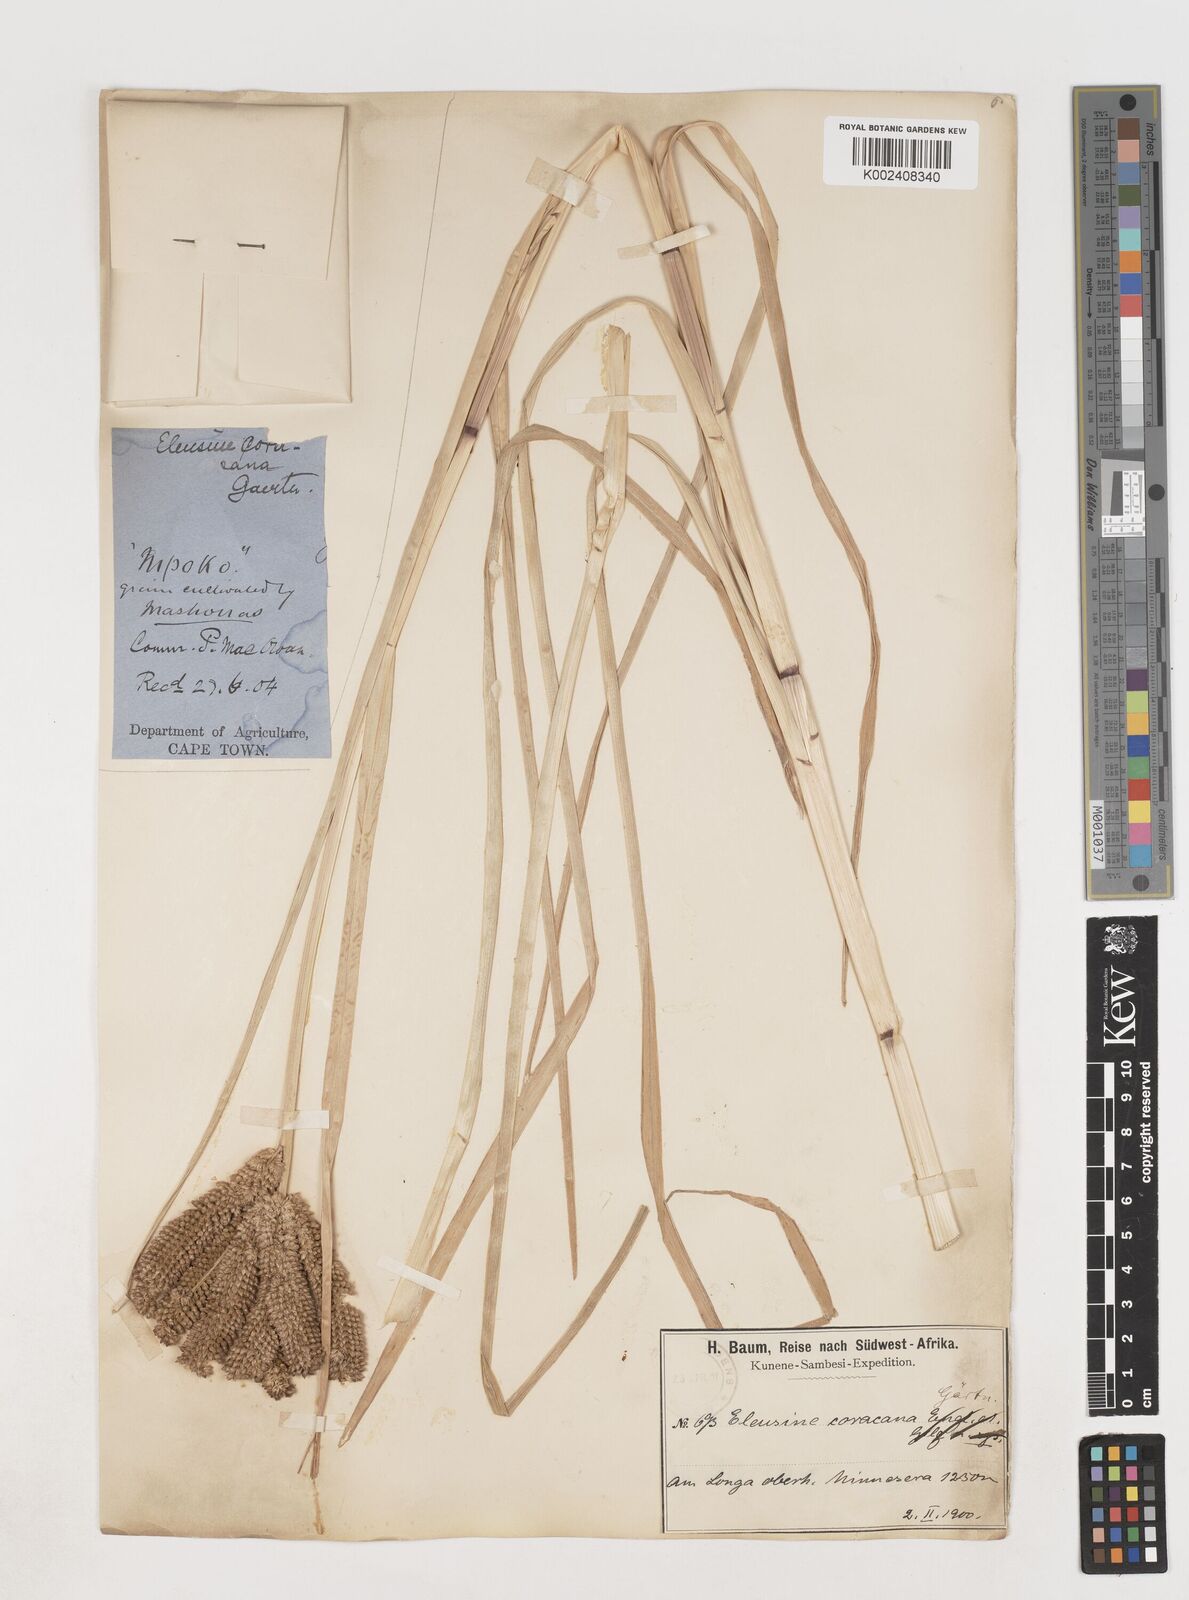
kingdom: Plantae
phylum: Tracheophyta
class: Liliopsida
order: Poales
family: Poaceae
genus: Eleusine
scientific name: Eleusine coracana
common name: Finger millet
